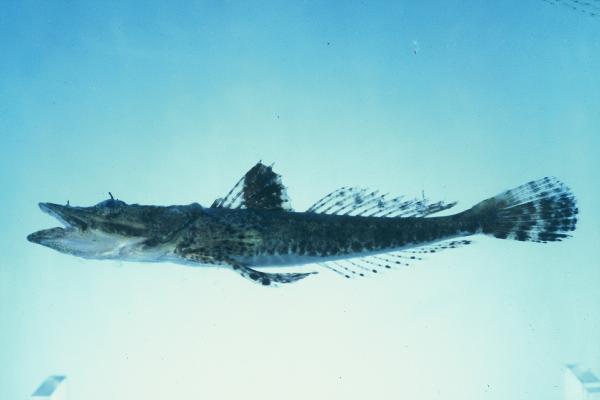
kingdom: Animalia
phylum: Chordata
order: Scorpaeniformes
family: Platycephalidae
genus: Papilloculiceps
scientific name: Papilloculiceps longiceps
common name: Tentacled flathead
